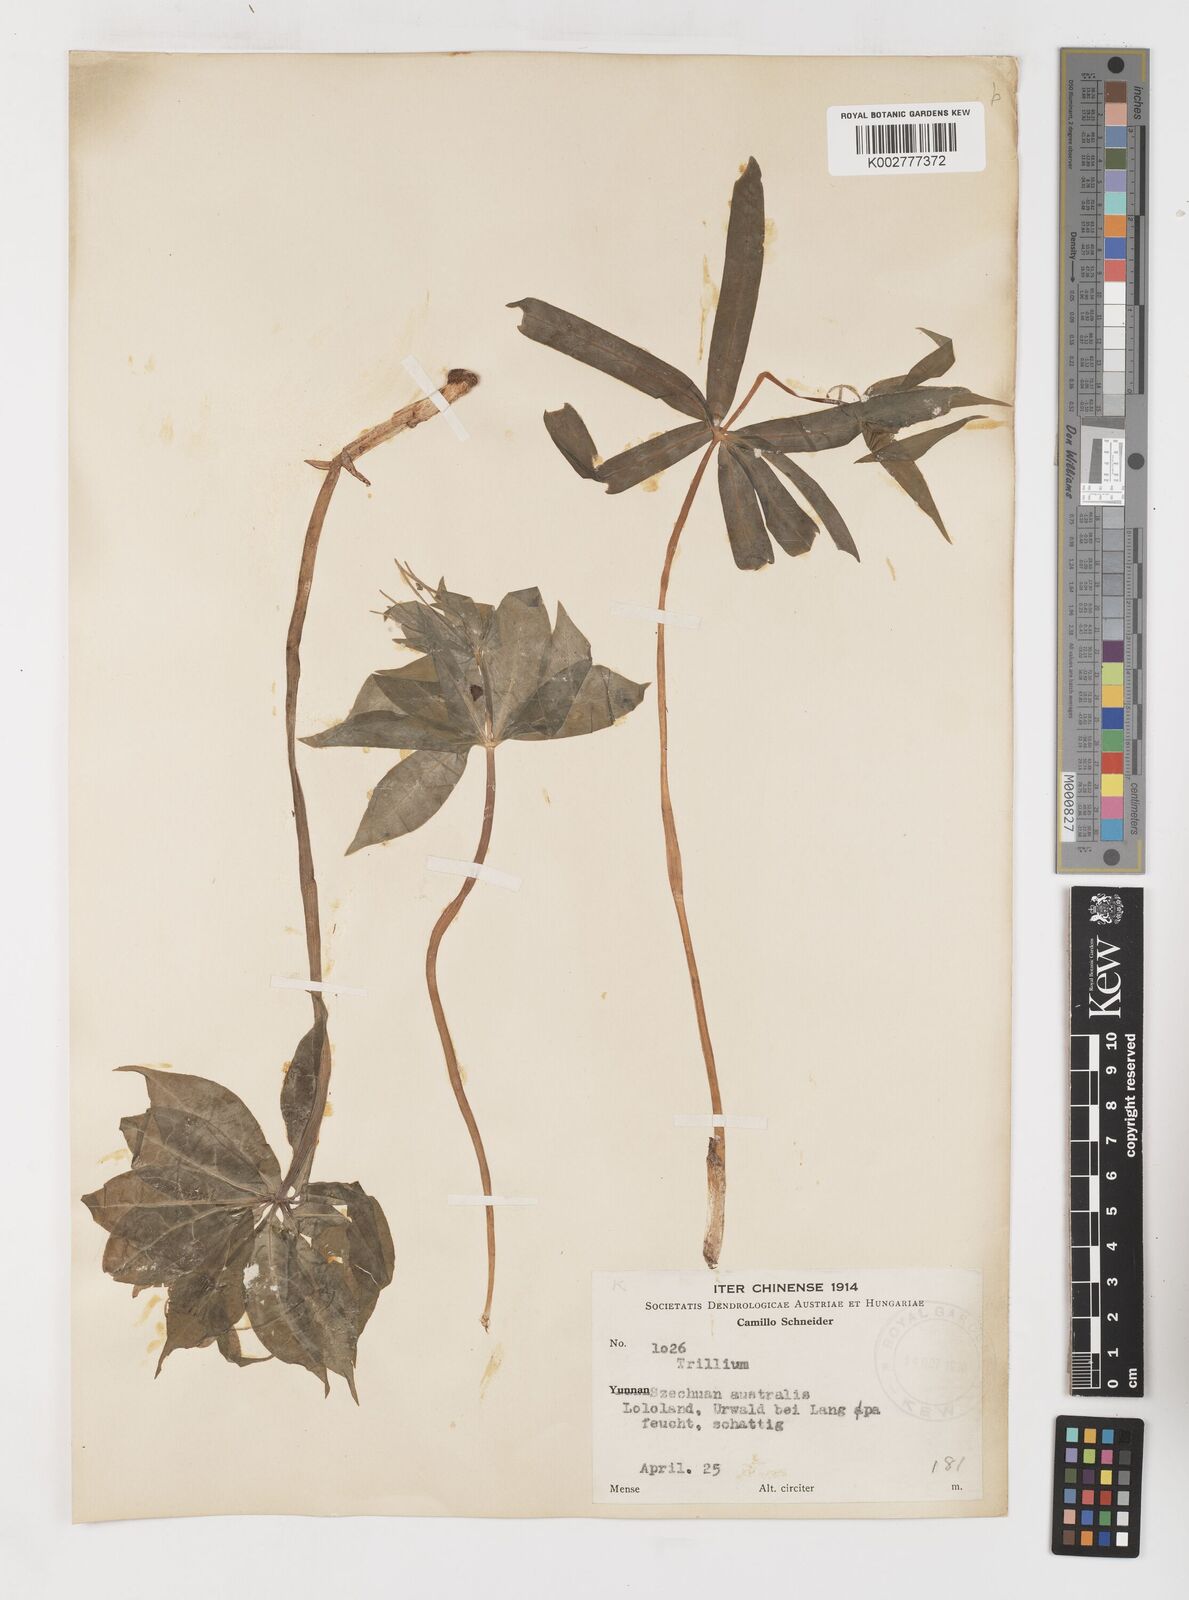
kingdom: Plantae
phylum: Tracheophyta
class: Liliopsida
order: Liliales
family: Melanthiaceae
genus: Paris
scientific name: Paris
